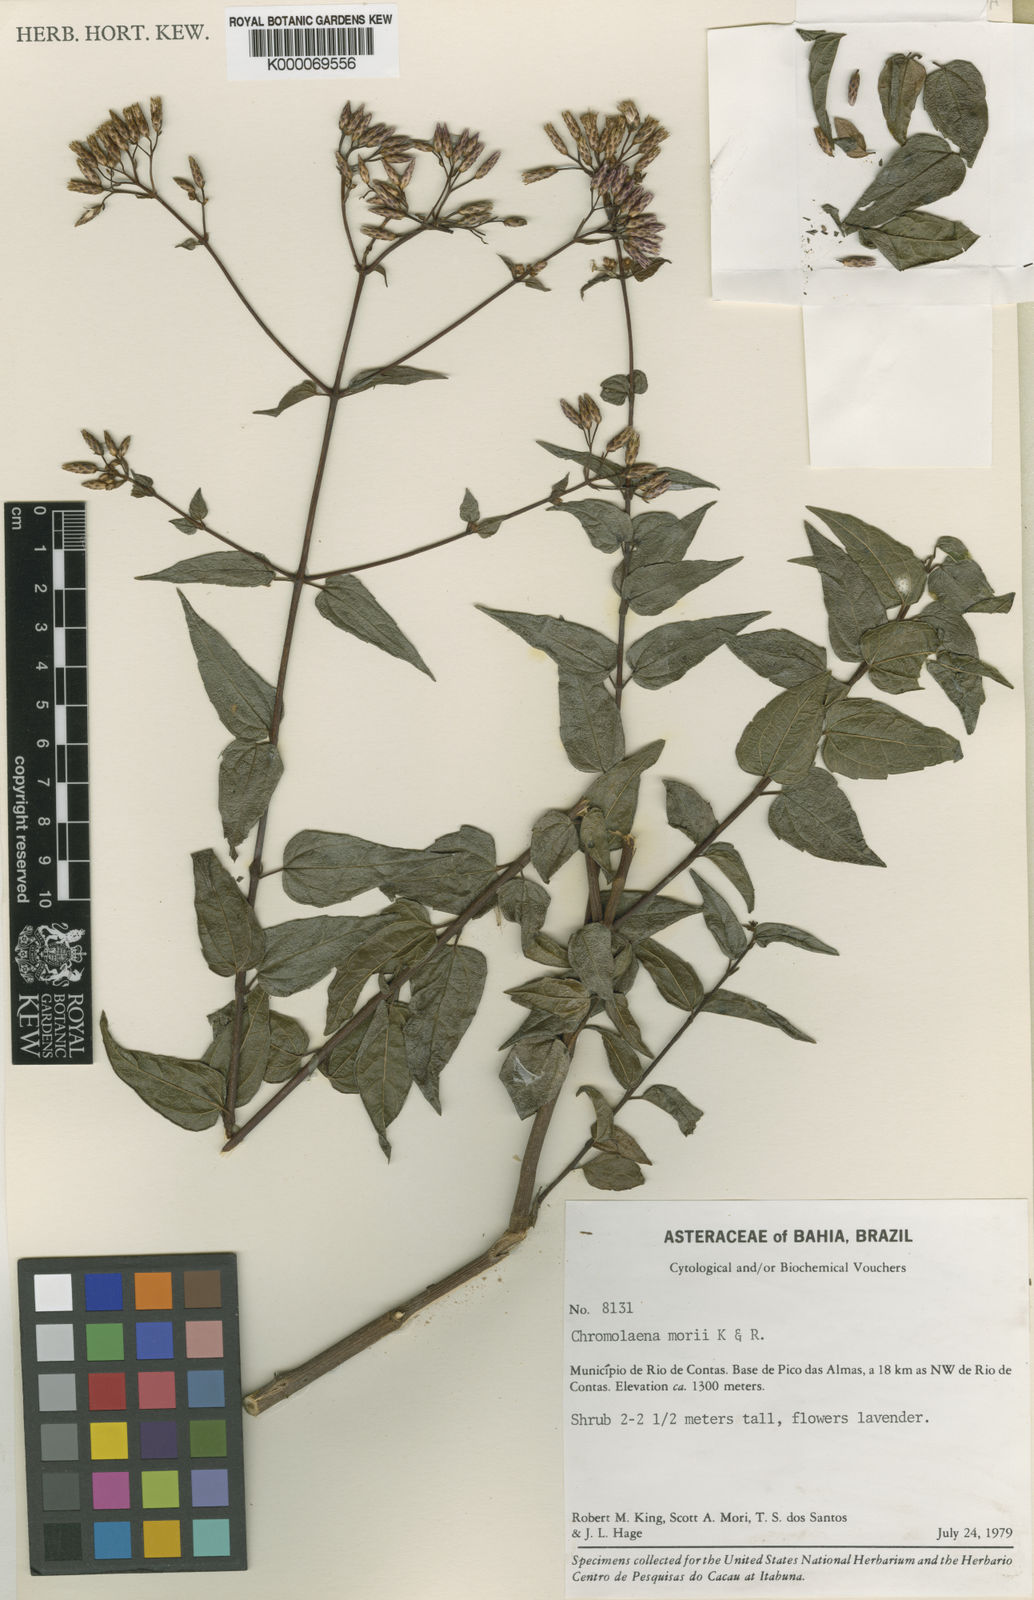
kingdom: Plantae
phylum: Tracheophyta
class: Magnoliopsida
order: Asterales
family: Asteraceae
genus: Chromolaena
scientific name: Chromolaena morii
